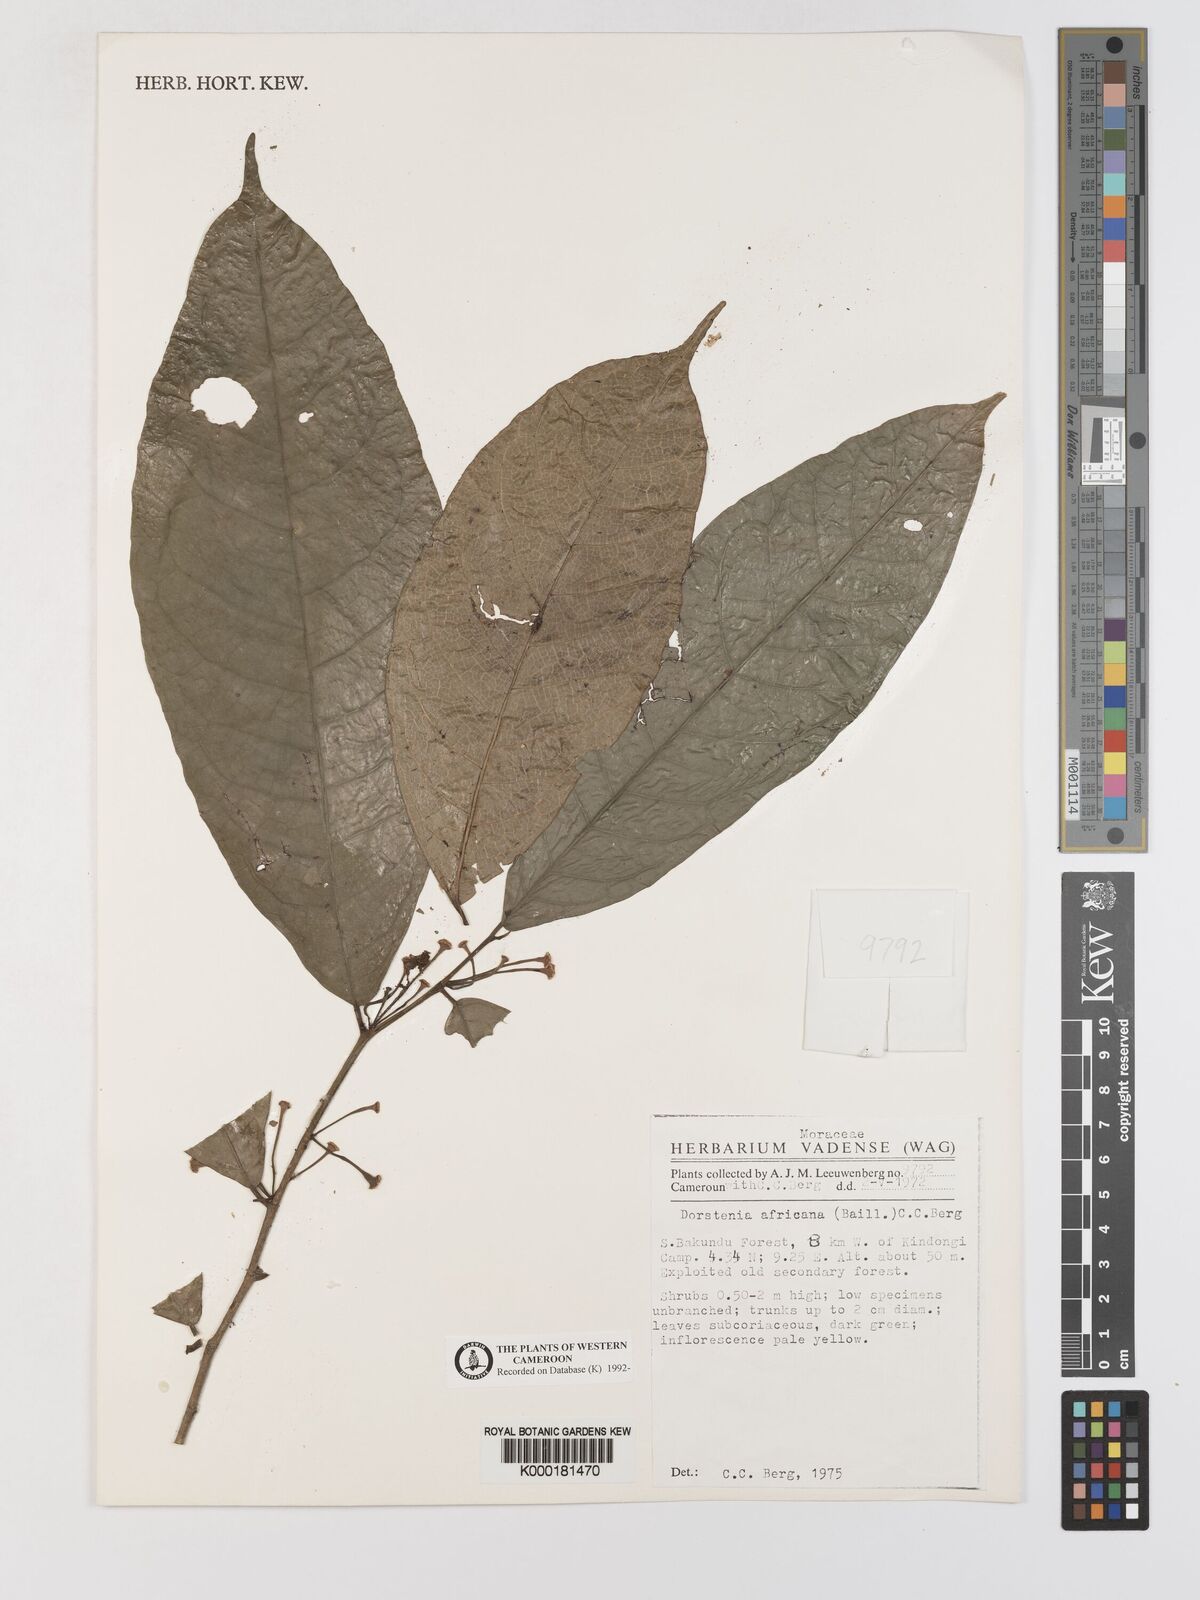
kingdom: Plantae
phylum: Tracheophyta
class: Magnoliopsida
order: Rosales
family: Moraceae
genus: Dorstenia
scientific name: Dorstenia africana
